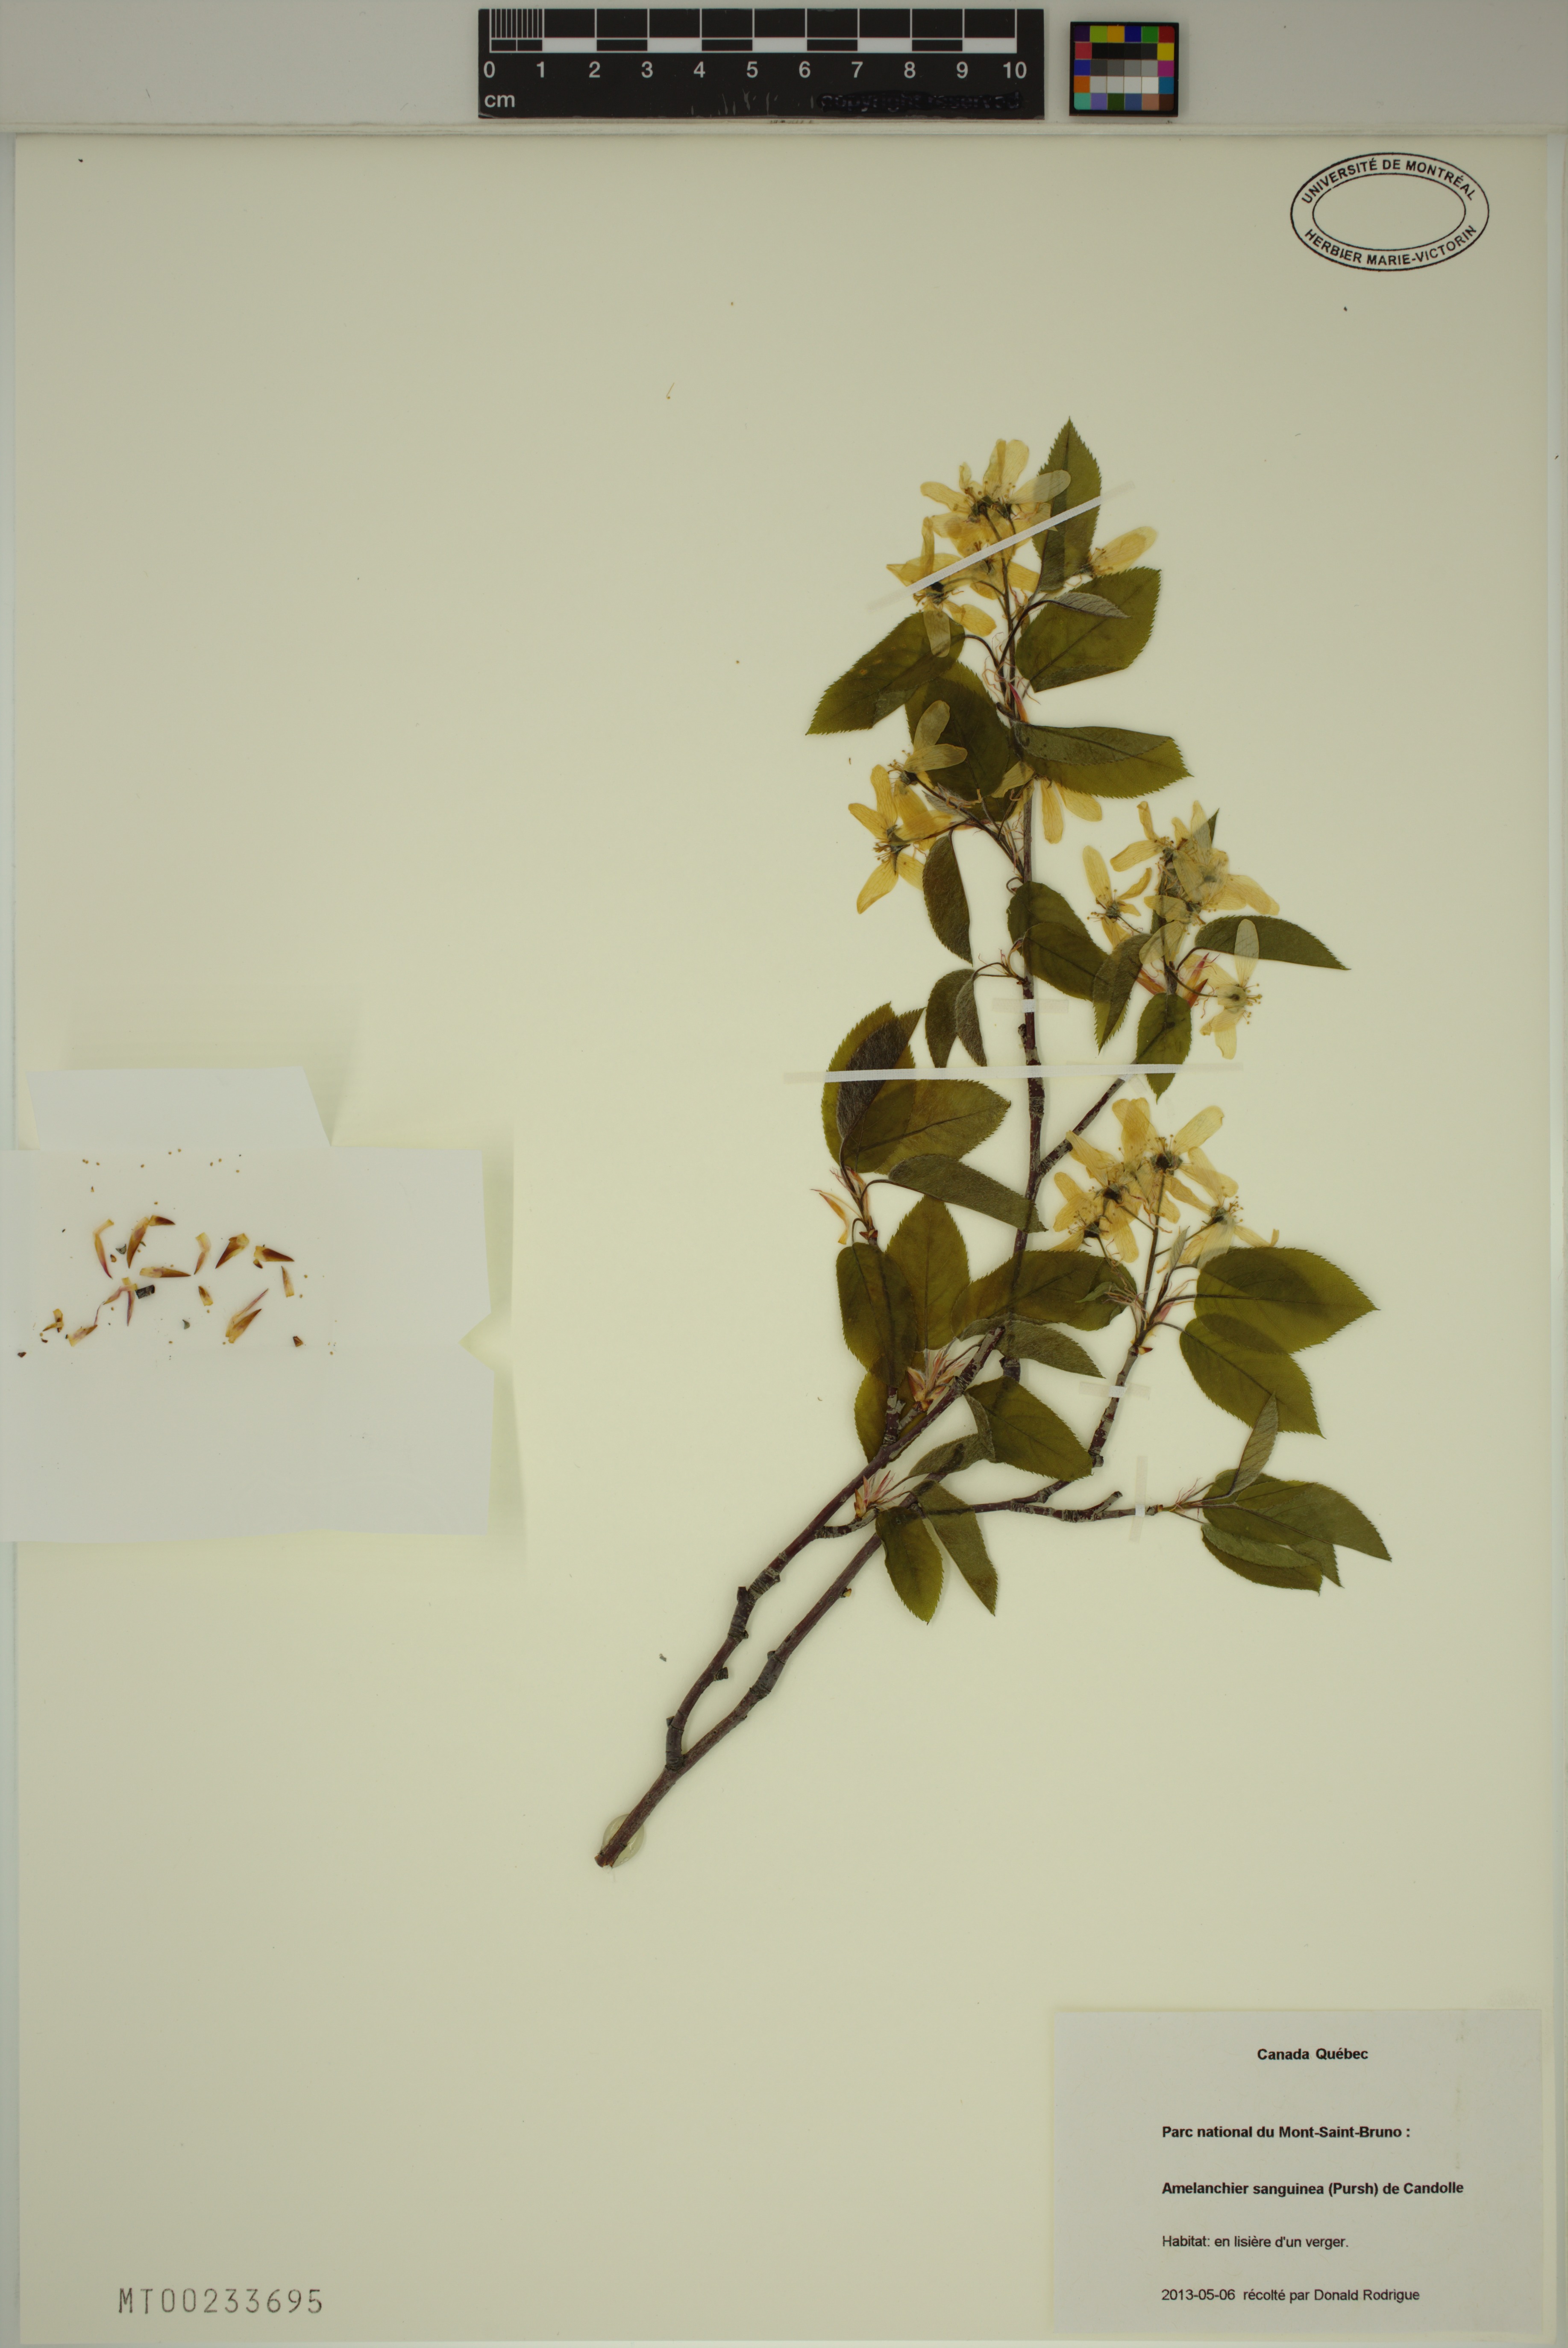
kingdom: Plantae
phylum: Tracheophyta
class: Magnoliopsida
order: Rosales
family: Rosaceae
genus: Amelanchier
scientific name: Amelanchier sanguinea
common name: Huron serviceberry
